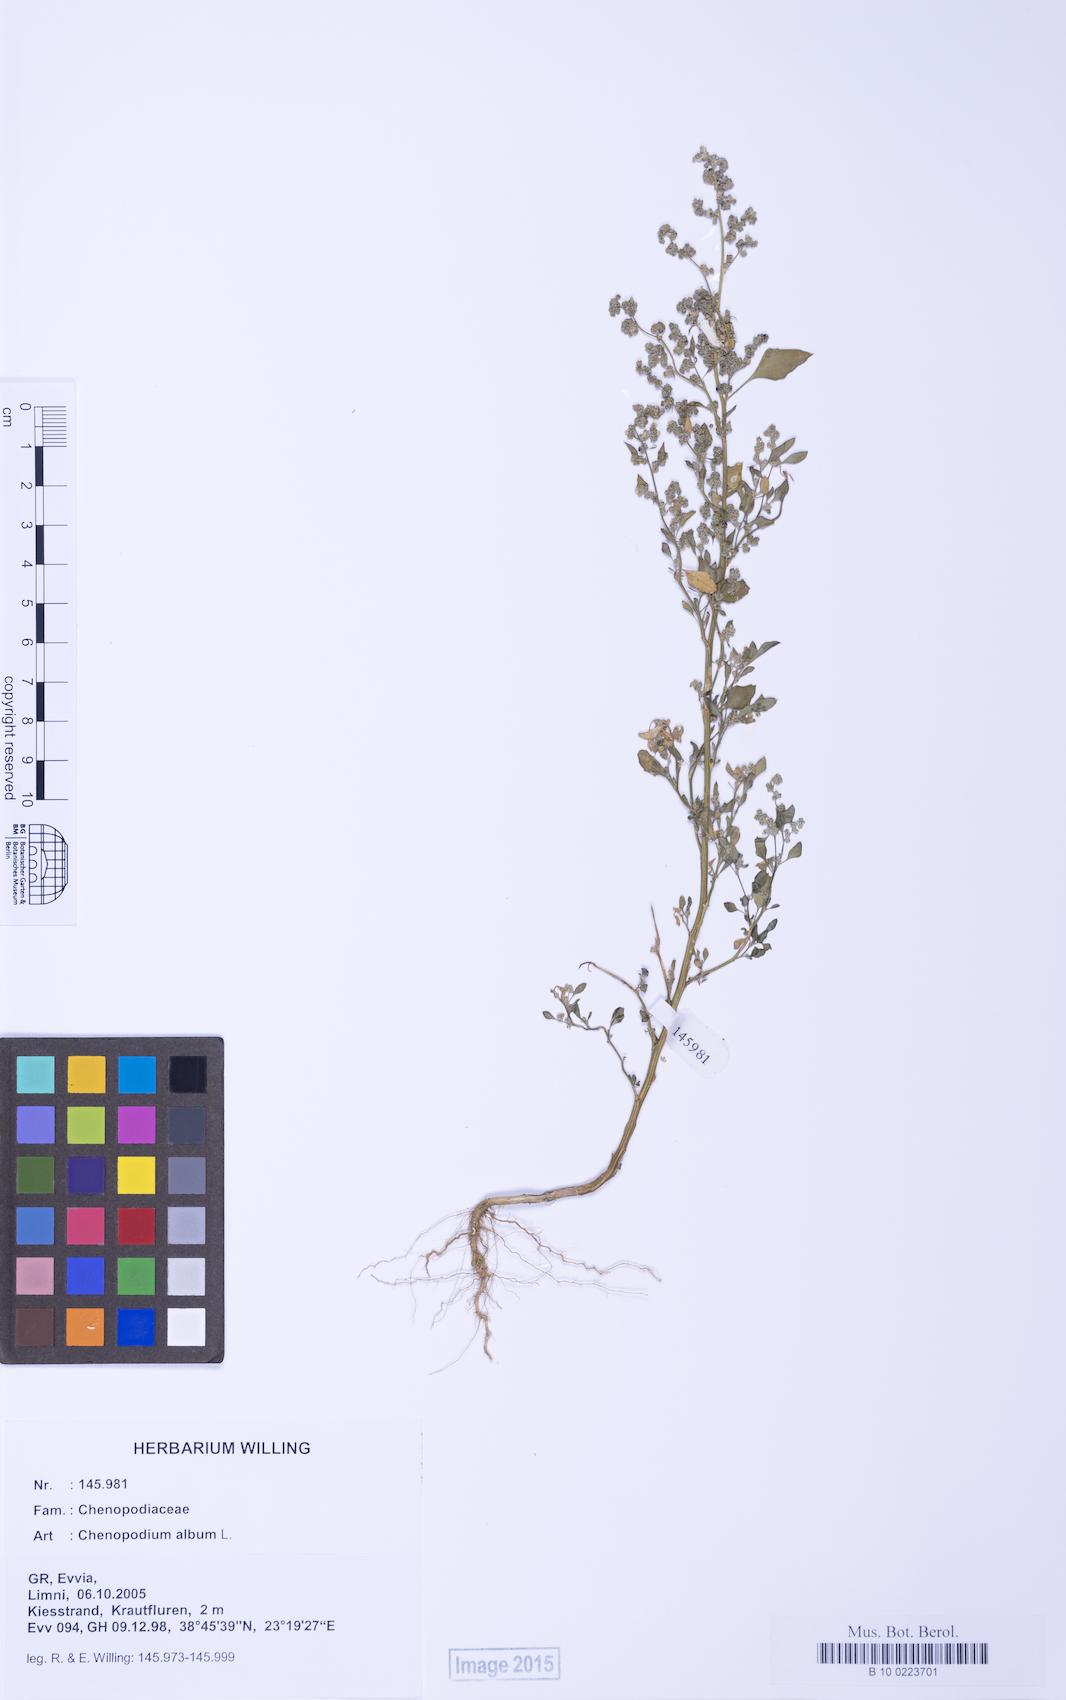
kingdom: Plantae
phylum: Tracheophyta
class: Magnoliopsida
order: Caryophyllales
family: Amaranthaceae
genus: Chenopodium
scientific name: Chenopodium album
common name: Fat-hen
